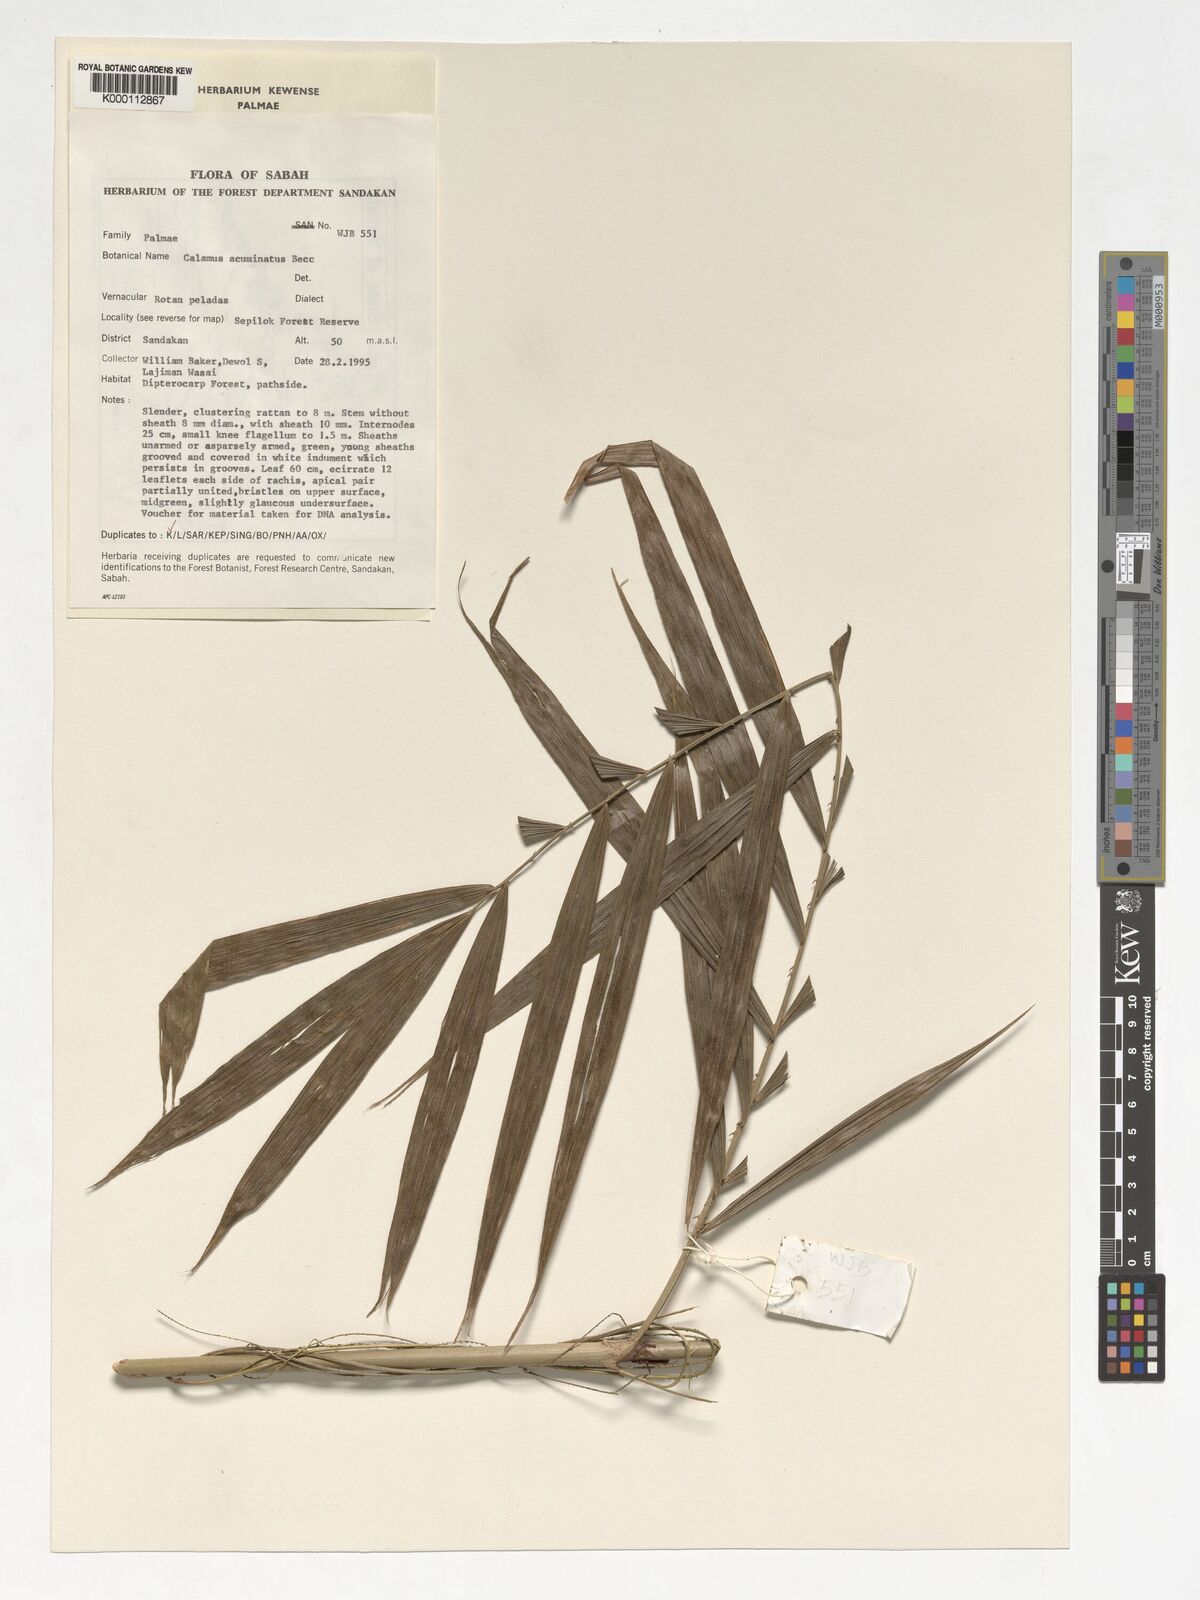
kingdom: Plantae
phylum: Tracheophyta
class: Liliopsida
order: Arecales
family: Arecaceae
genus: Calamus
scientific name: Calamus javensis
